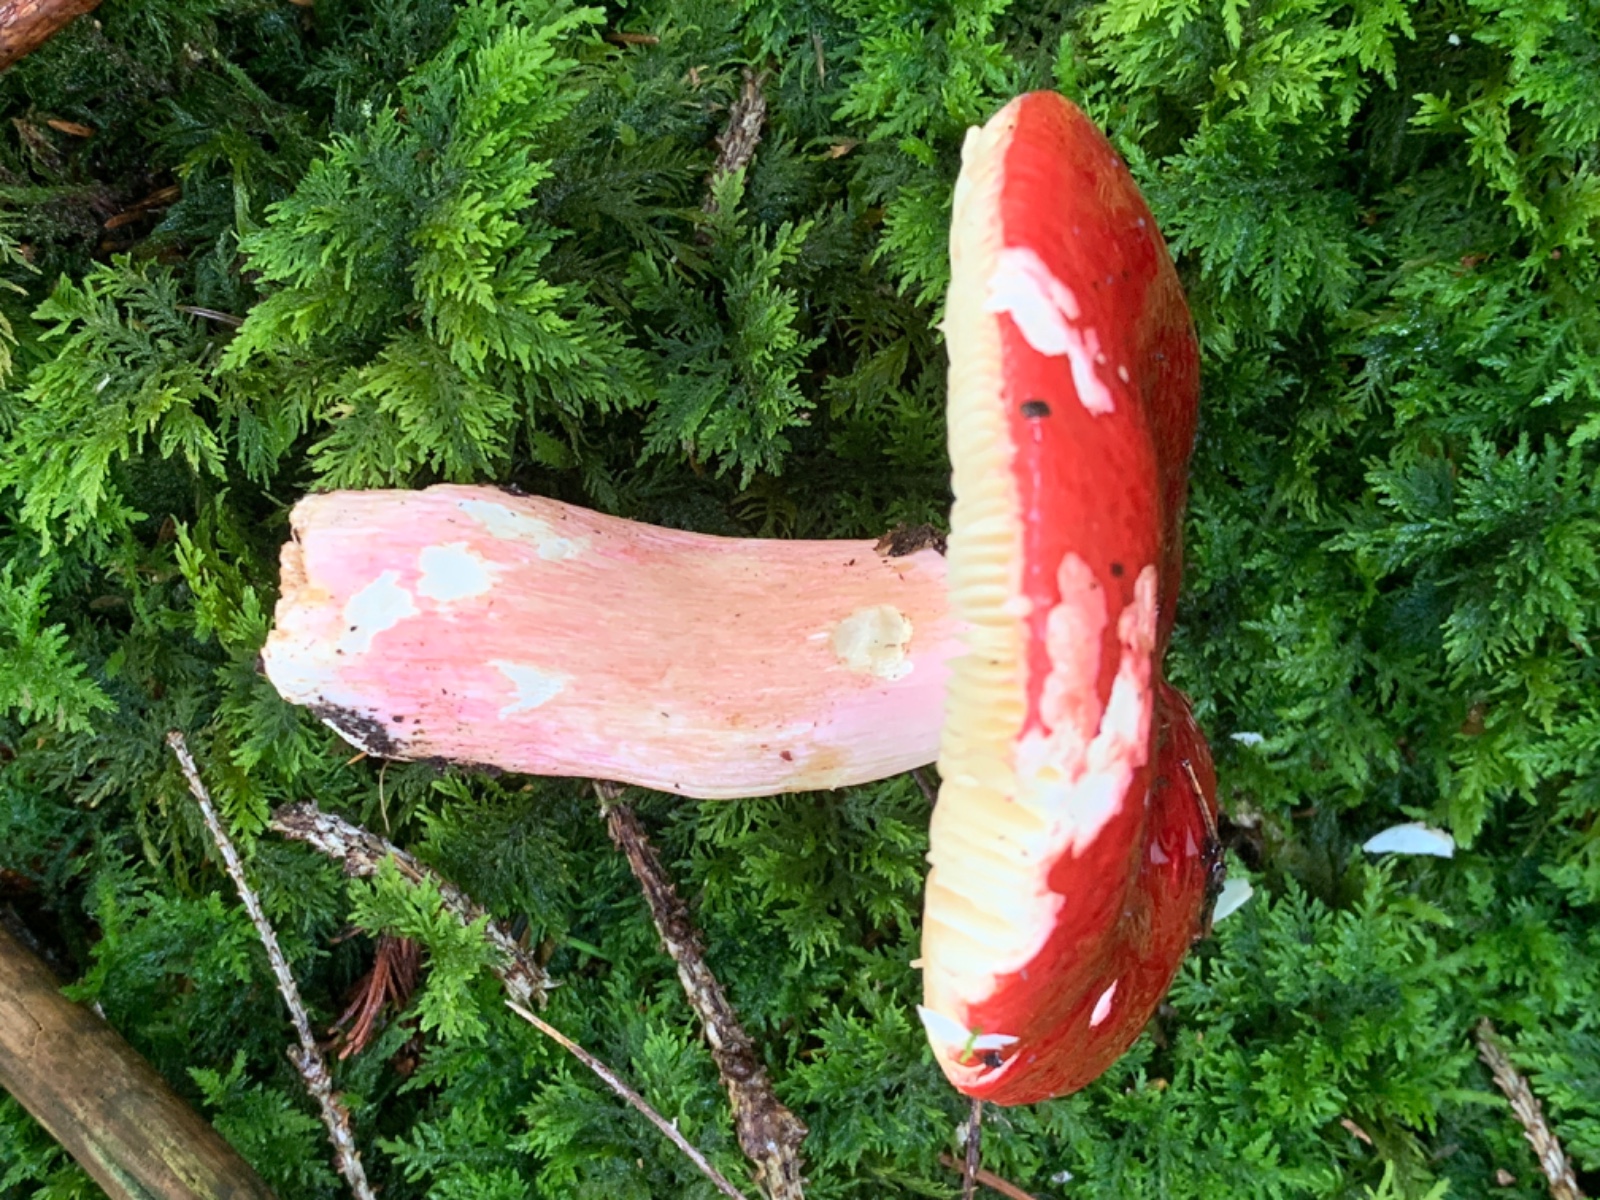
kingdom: Fungi
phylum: Basidiomycota
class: Agaricomycetes
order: Russulales
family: Russulaceae
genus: Russula
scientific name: Russula xerampelina
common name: hummer-skørhat
